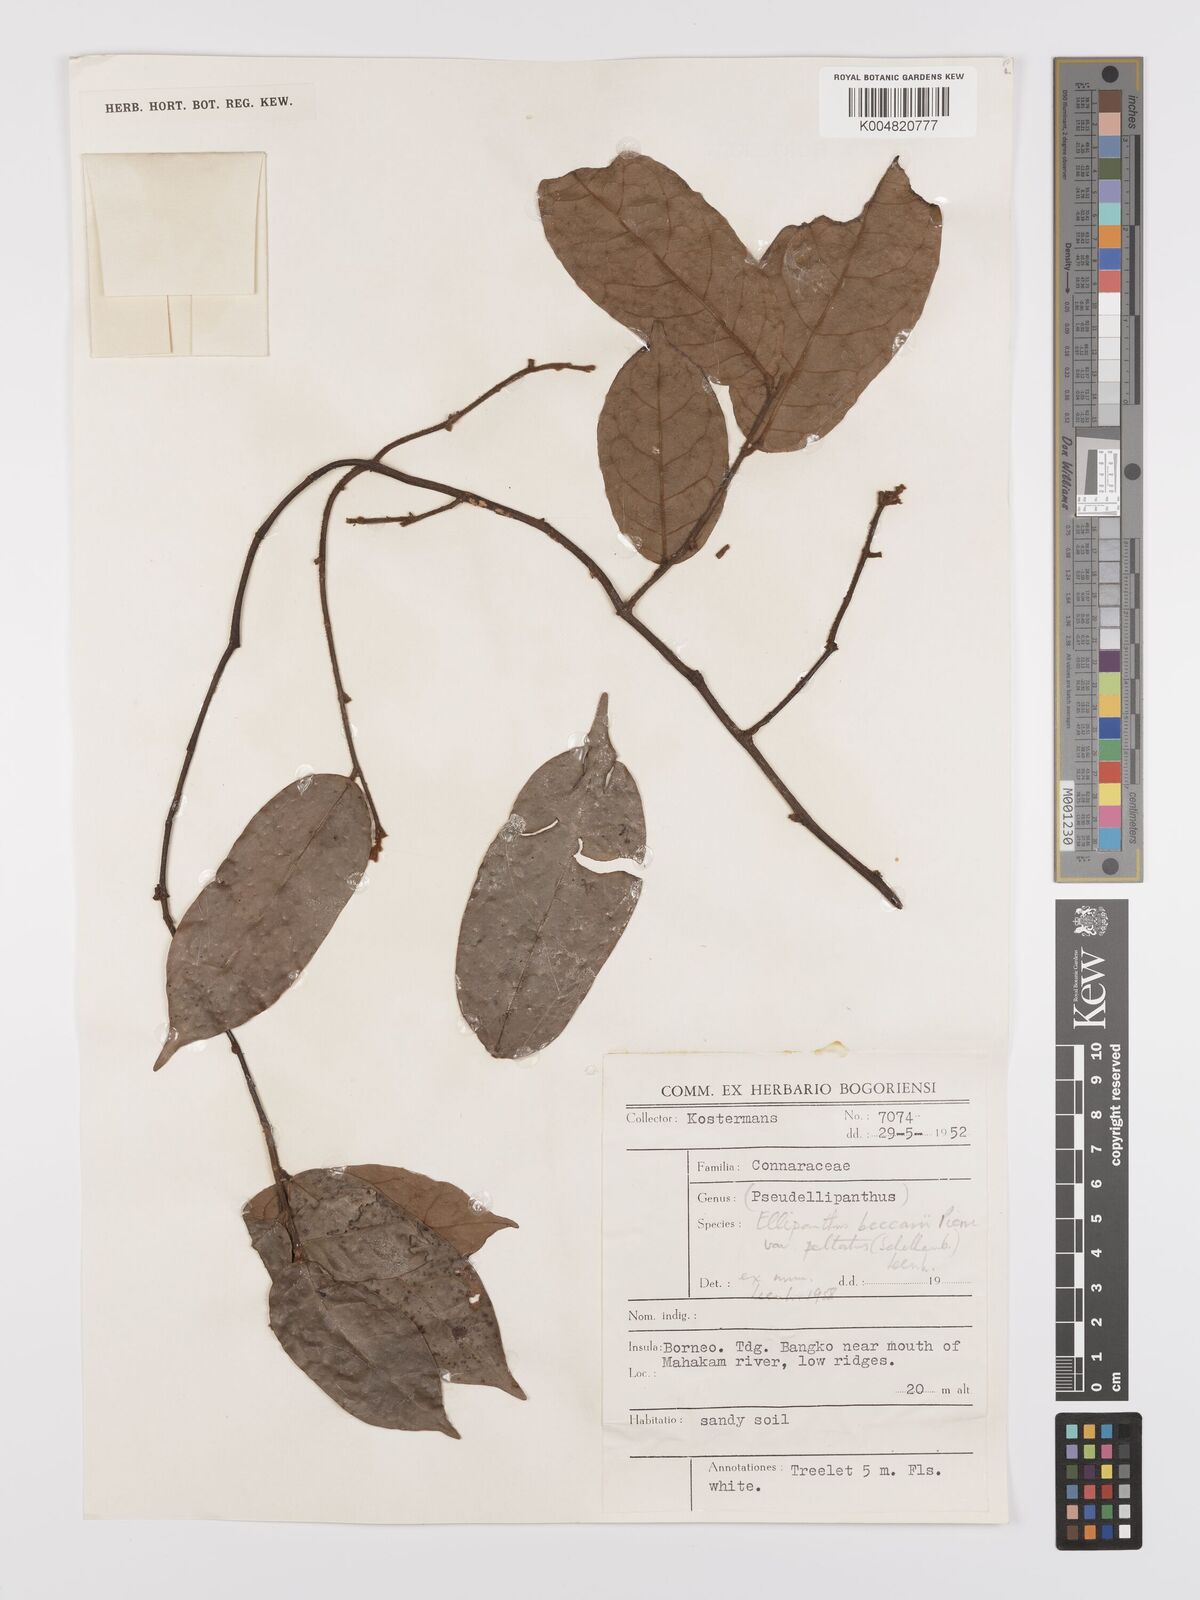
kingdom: Plantae
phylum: Tracheophyta
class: Magnoliopsida
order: Oxalidales
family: Connaraceae
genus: Ellipanthus
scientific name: Ellipanthus beccarii
